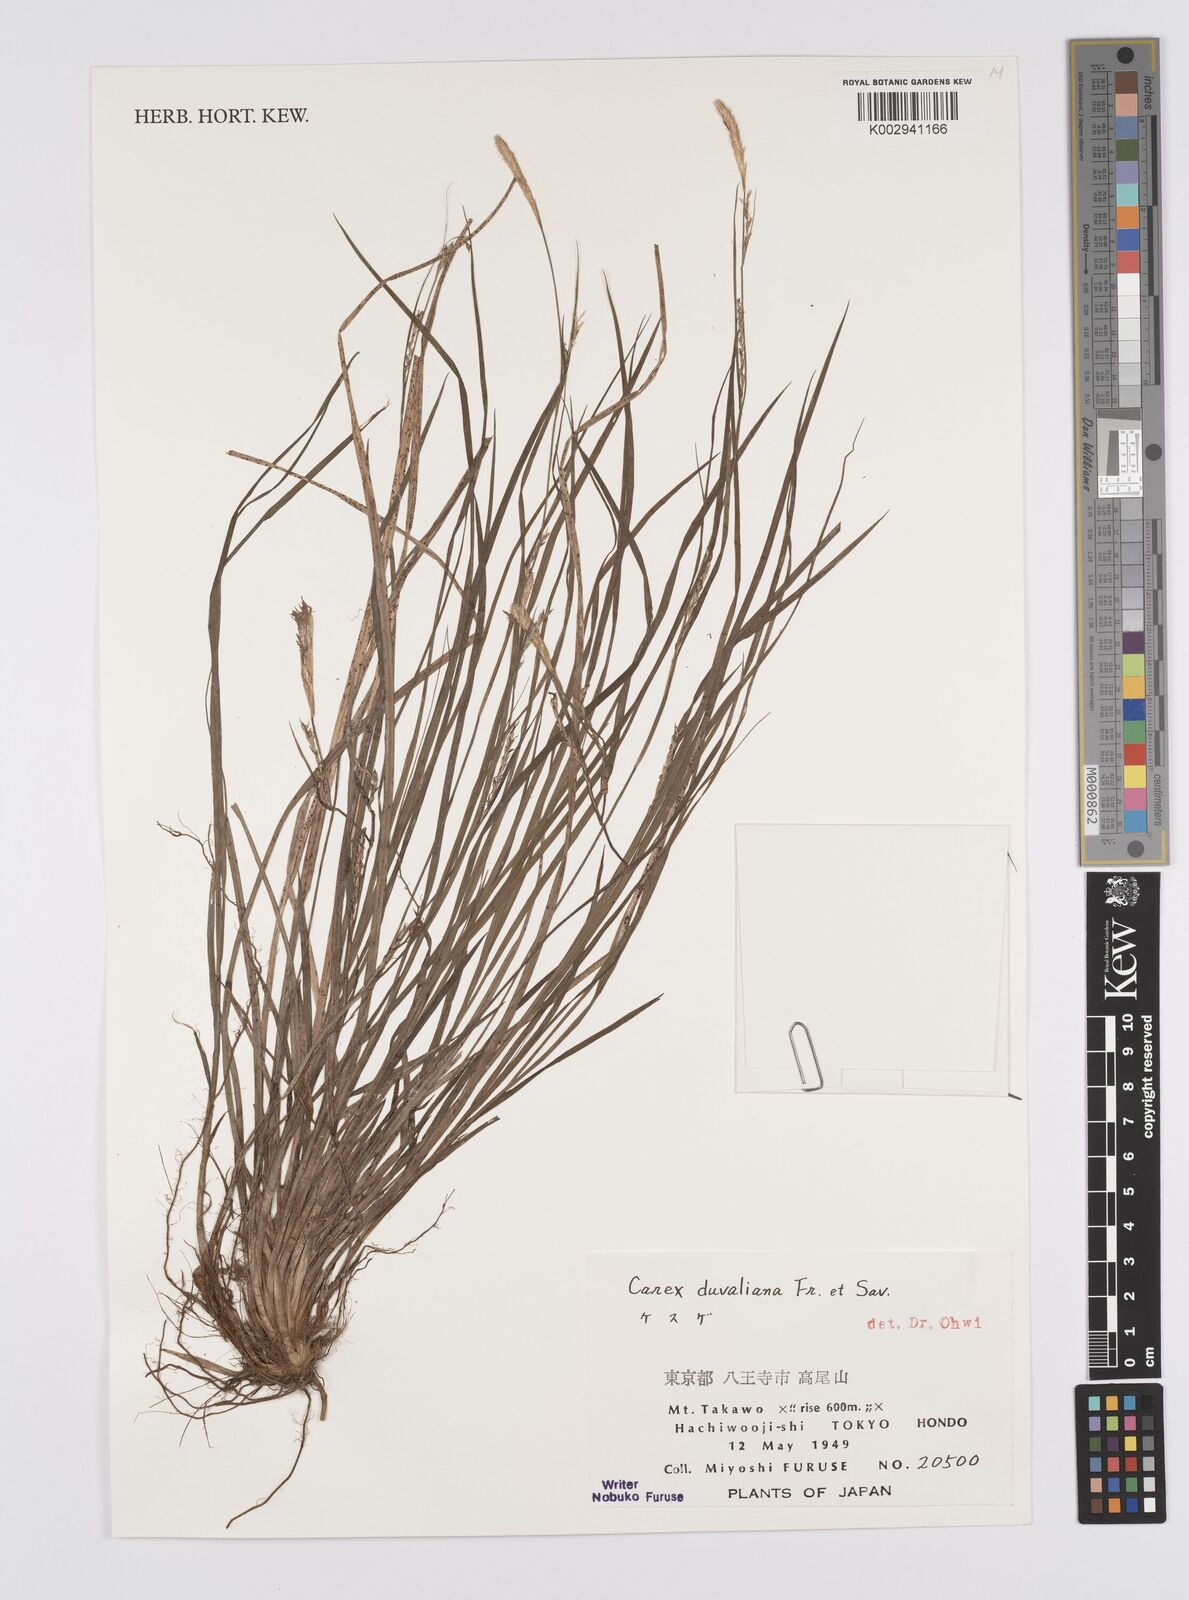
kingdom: Plantae
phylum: Tracheophyta
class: Liliopsida
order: Poales
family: Cyperaceae
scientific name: Cyperaceae
